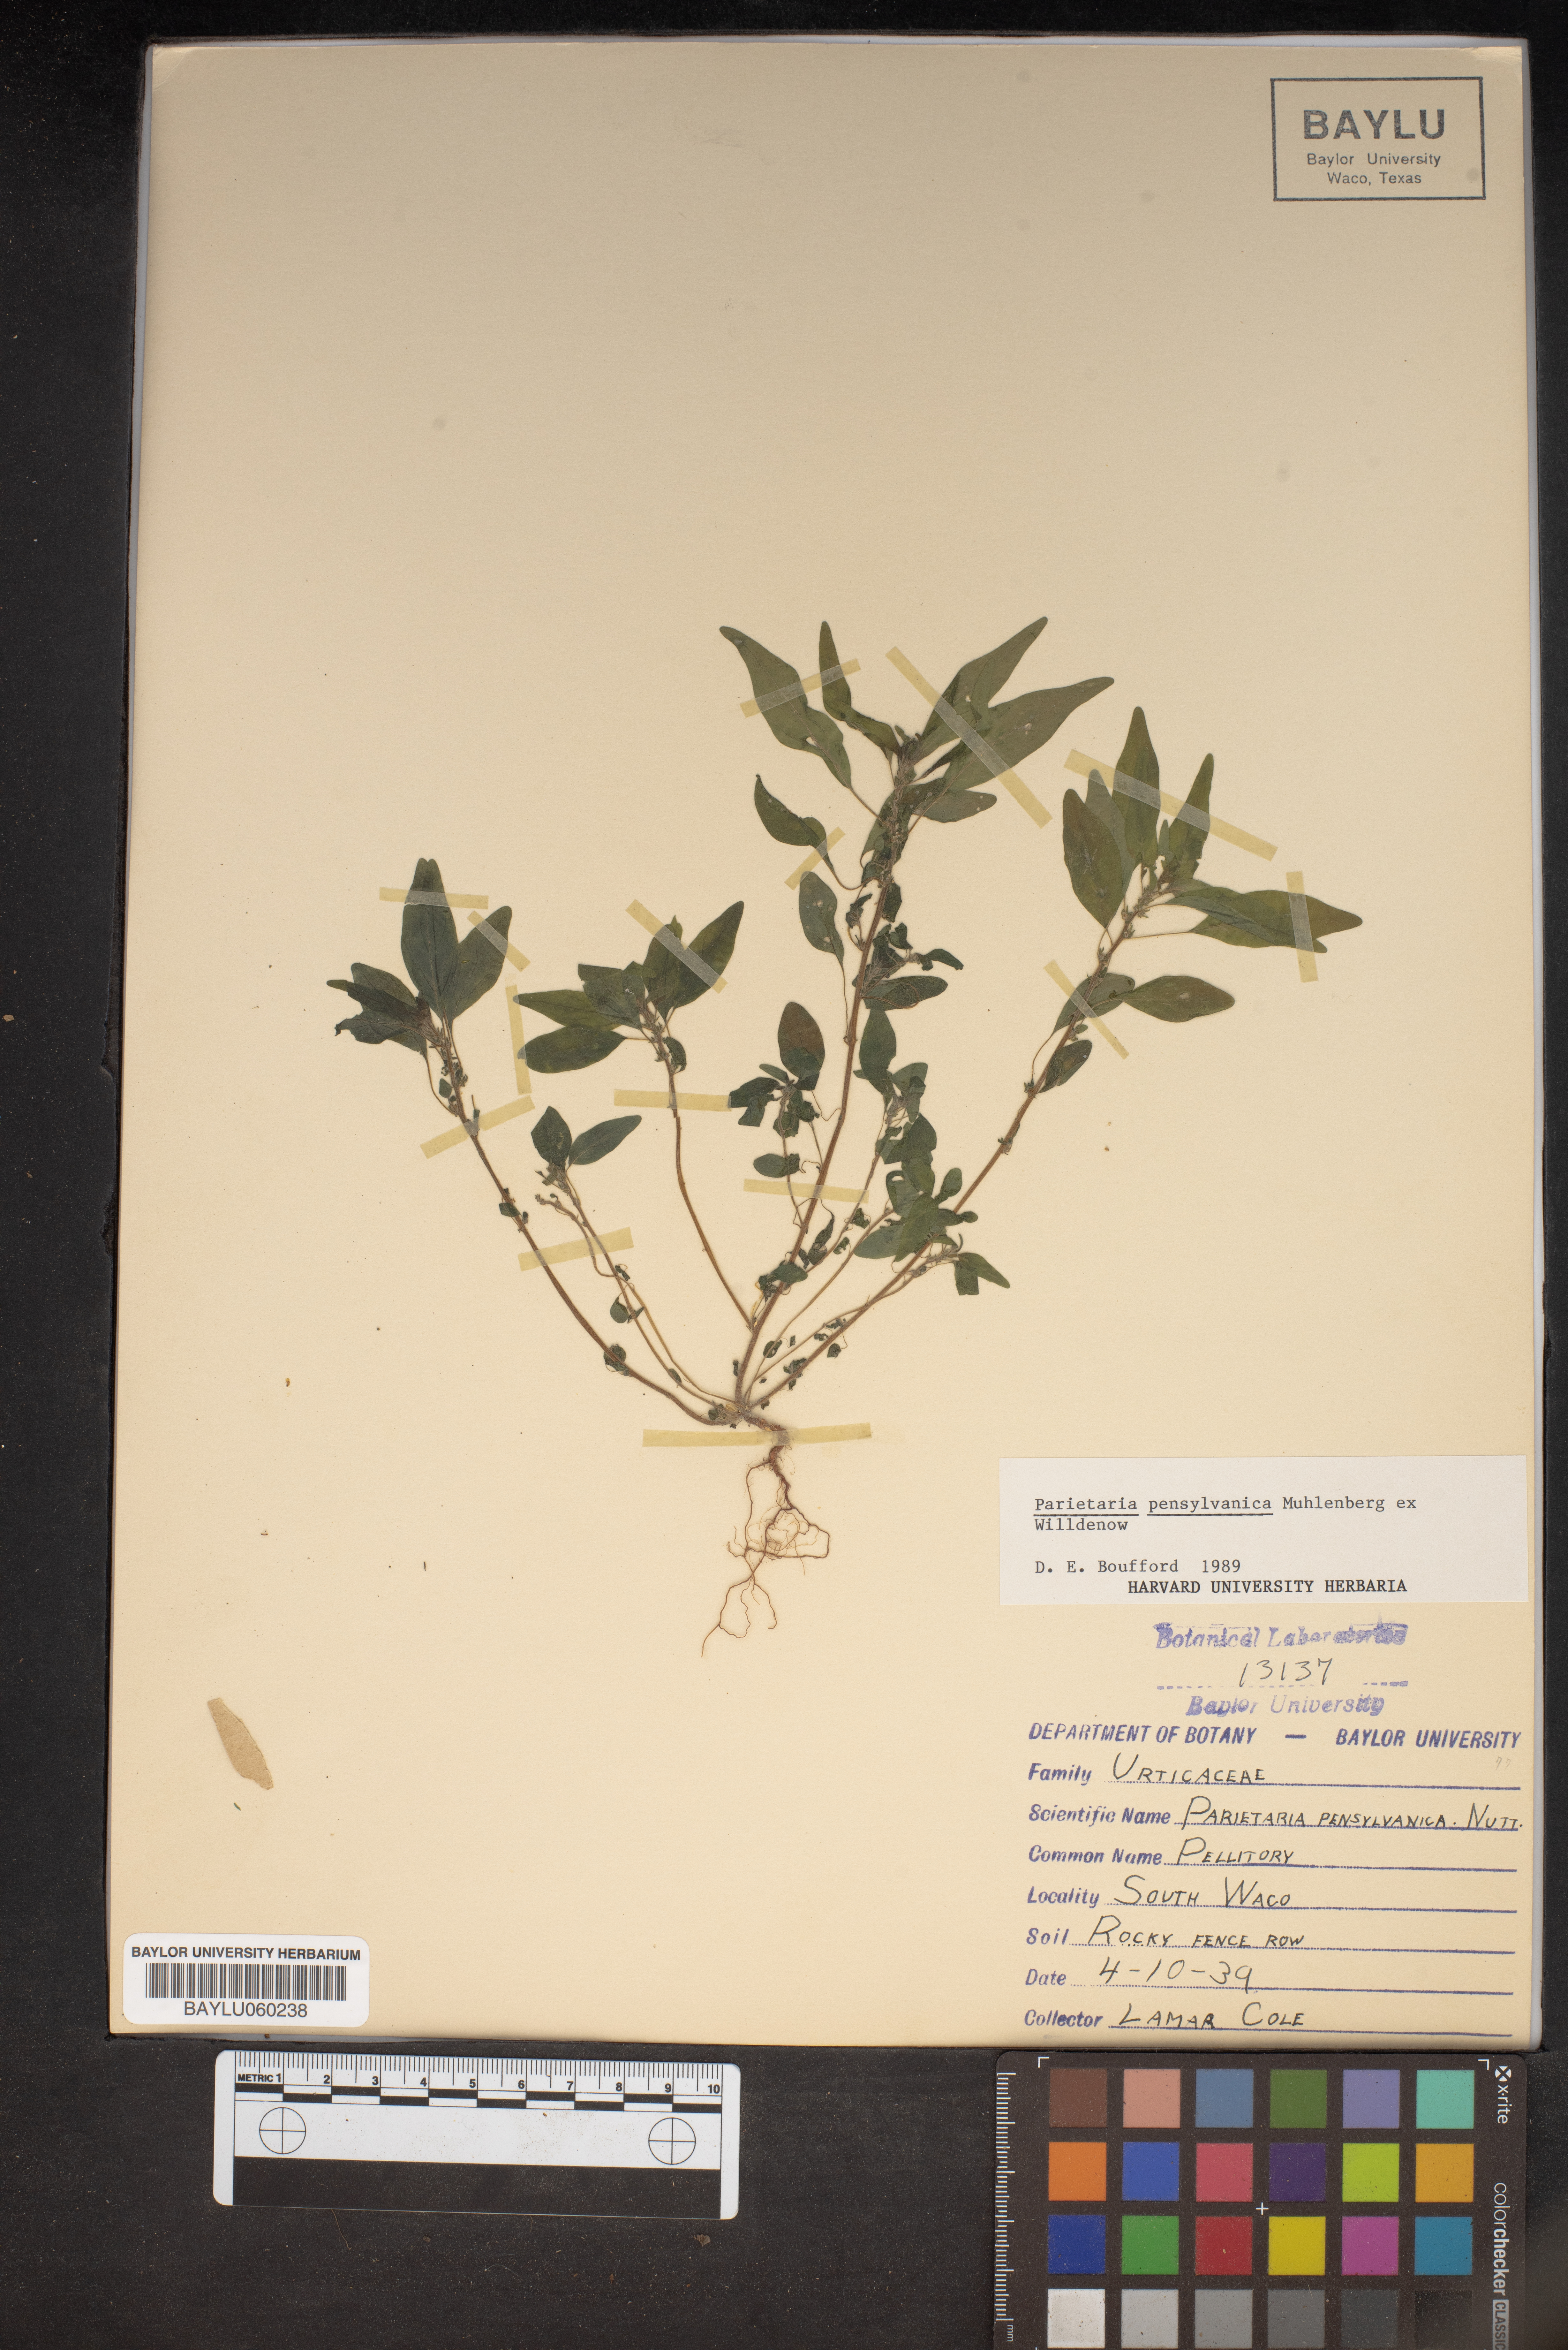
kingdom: Plantae
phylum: Tracheophyta
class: Magnoliopsida
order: Rosales
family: Urticaceae
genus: Parietaria
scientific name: Parietaria pensylvanica
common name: Pennsylvania pellitory
